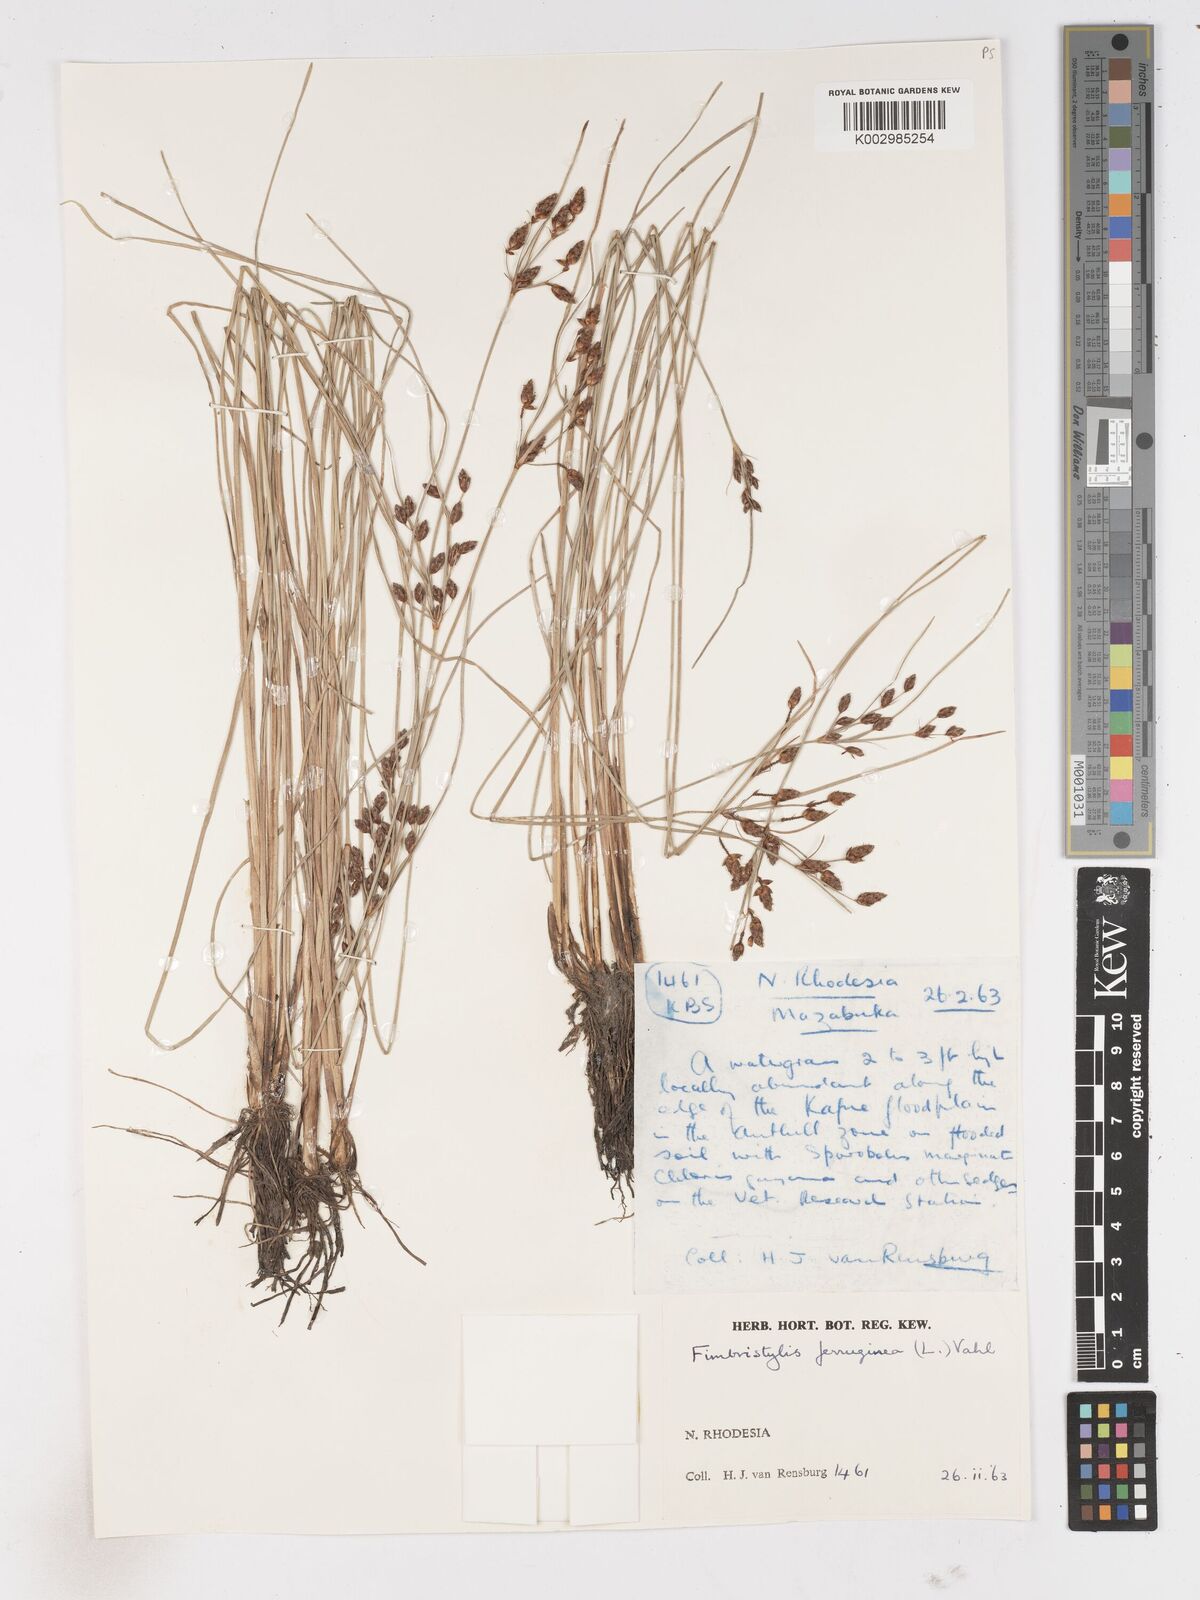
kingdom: Plantae
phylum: Tracheophyta
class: Liliopsida
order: Poales
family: Cyperaceae
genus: Fimbristylis
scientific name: Fimbristylis ferruginea
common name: West indian fimbry
